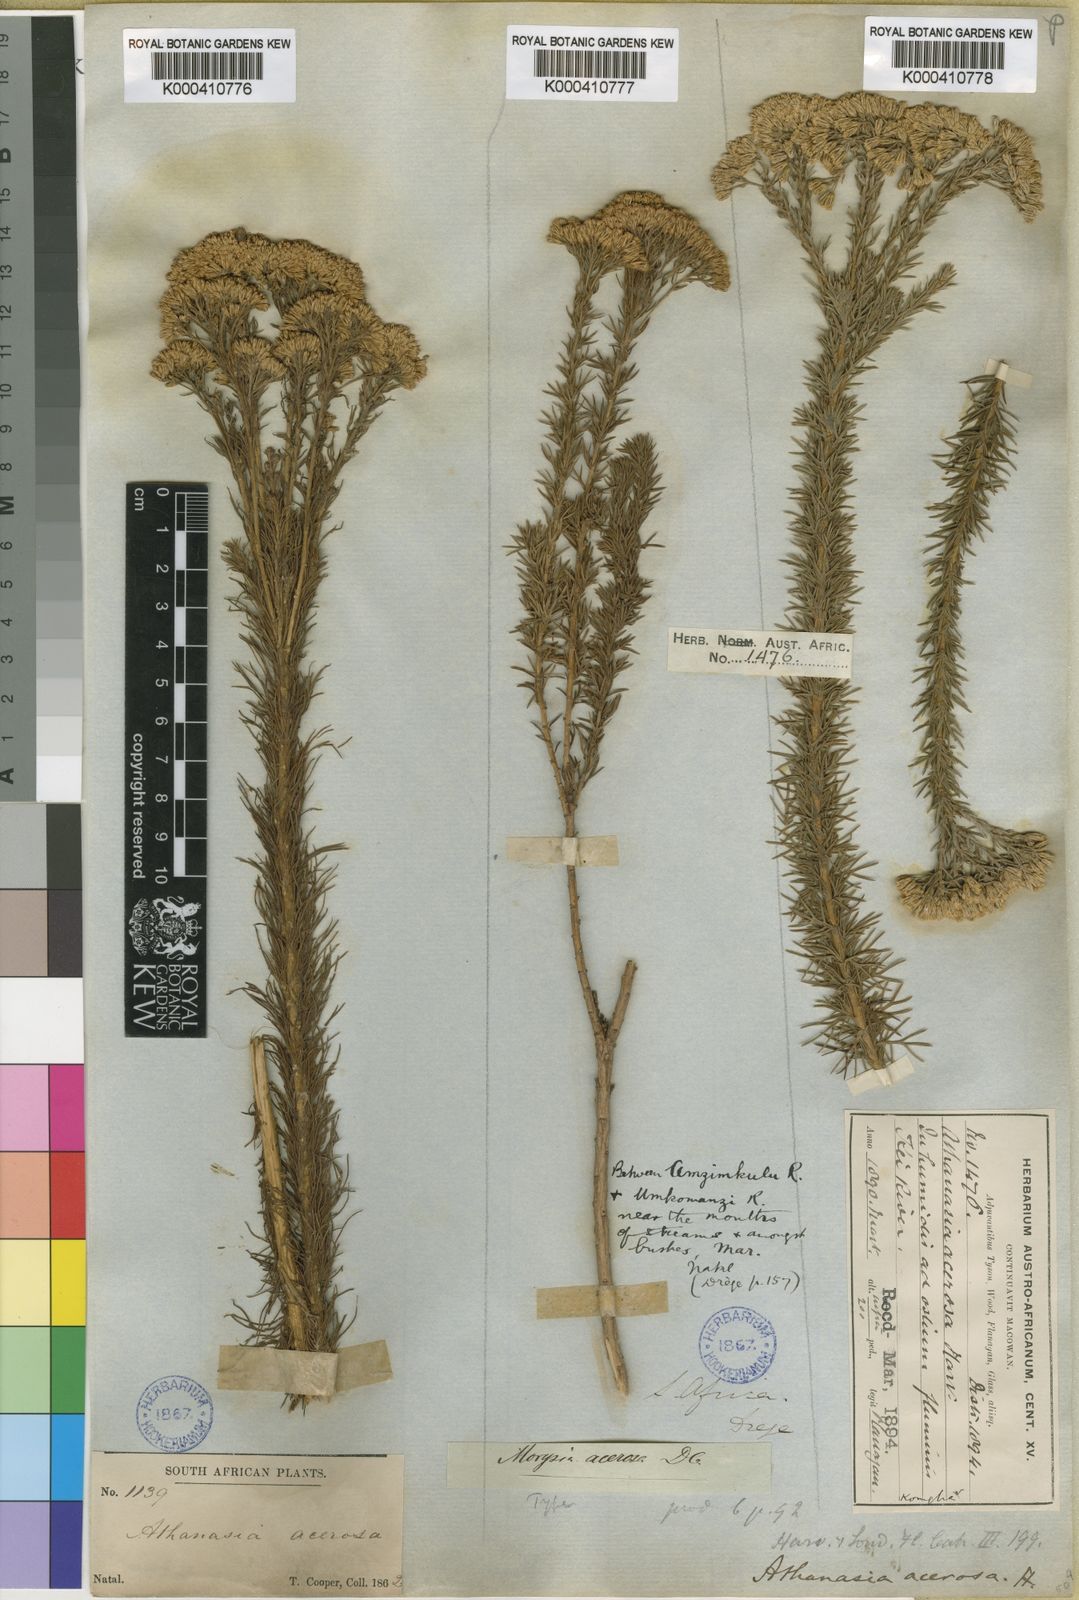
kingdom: Plantae
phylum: Tracheophyta
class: Magnoliopsida
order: Asterales
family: Asteraceae
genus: Phymaspermum
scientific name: Phymaspermum
